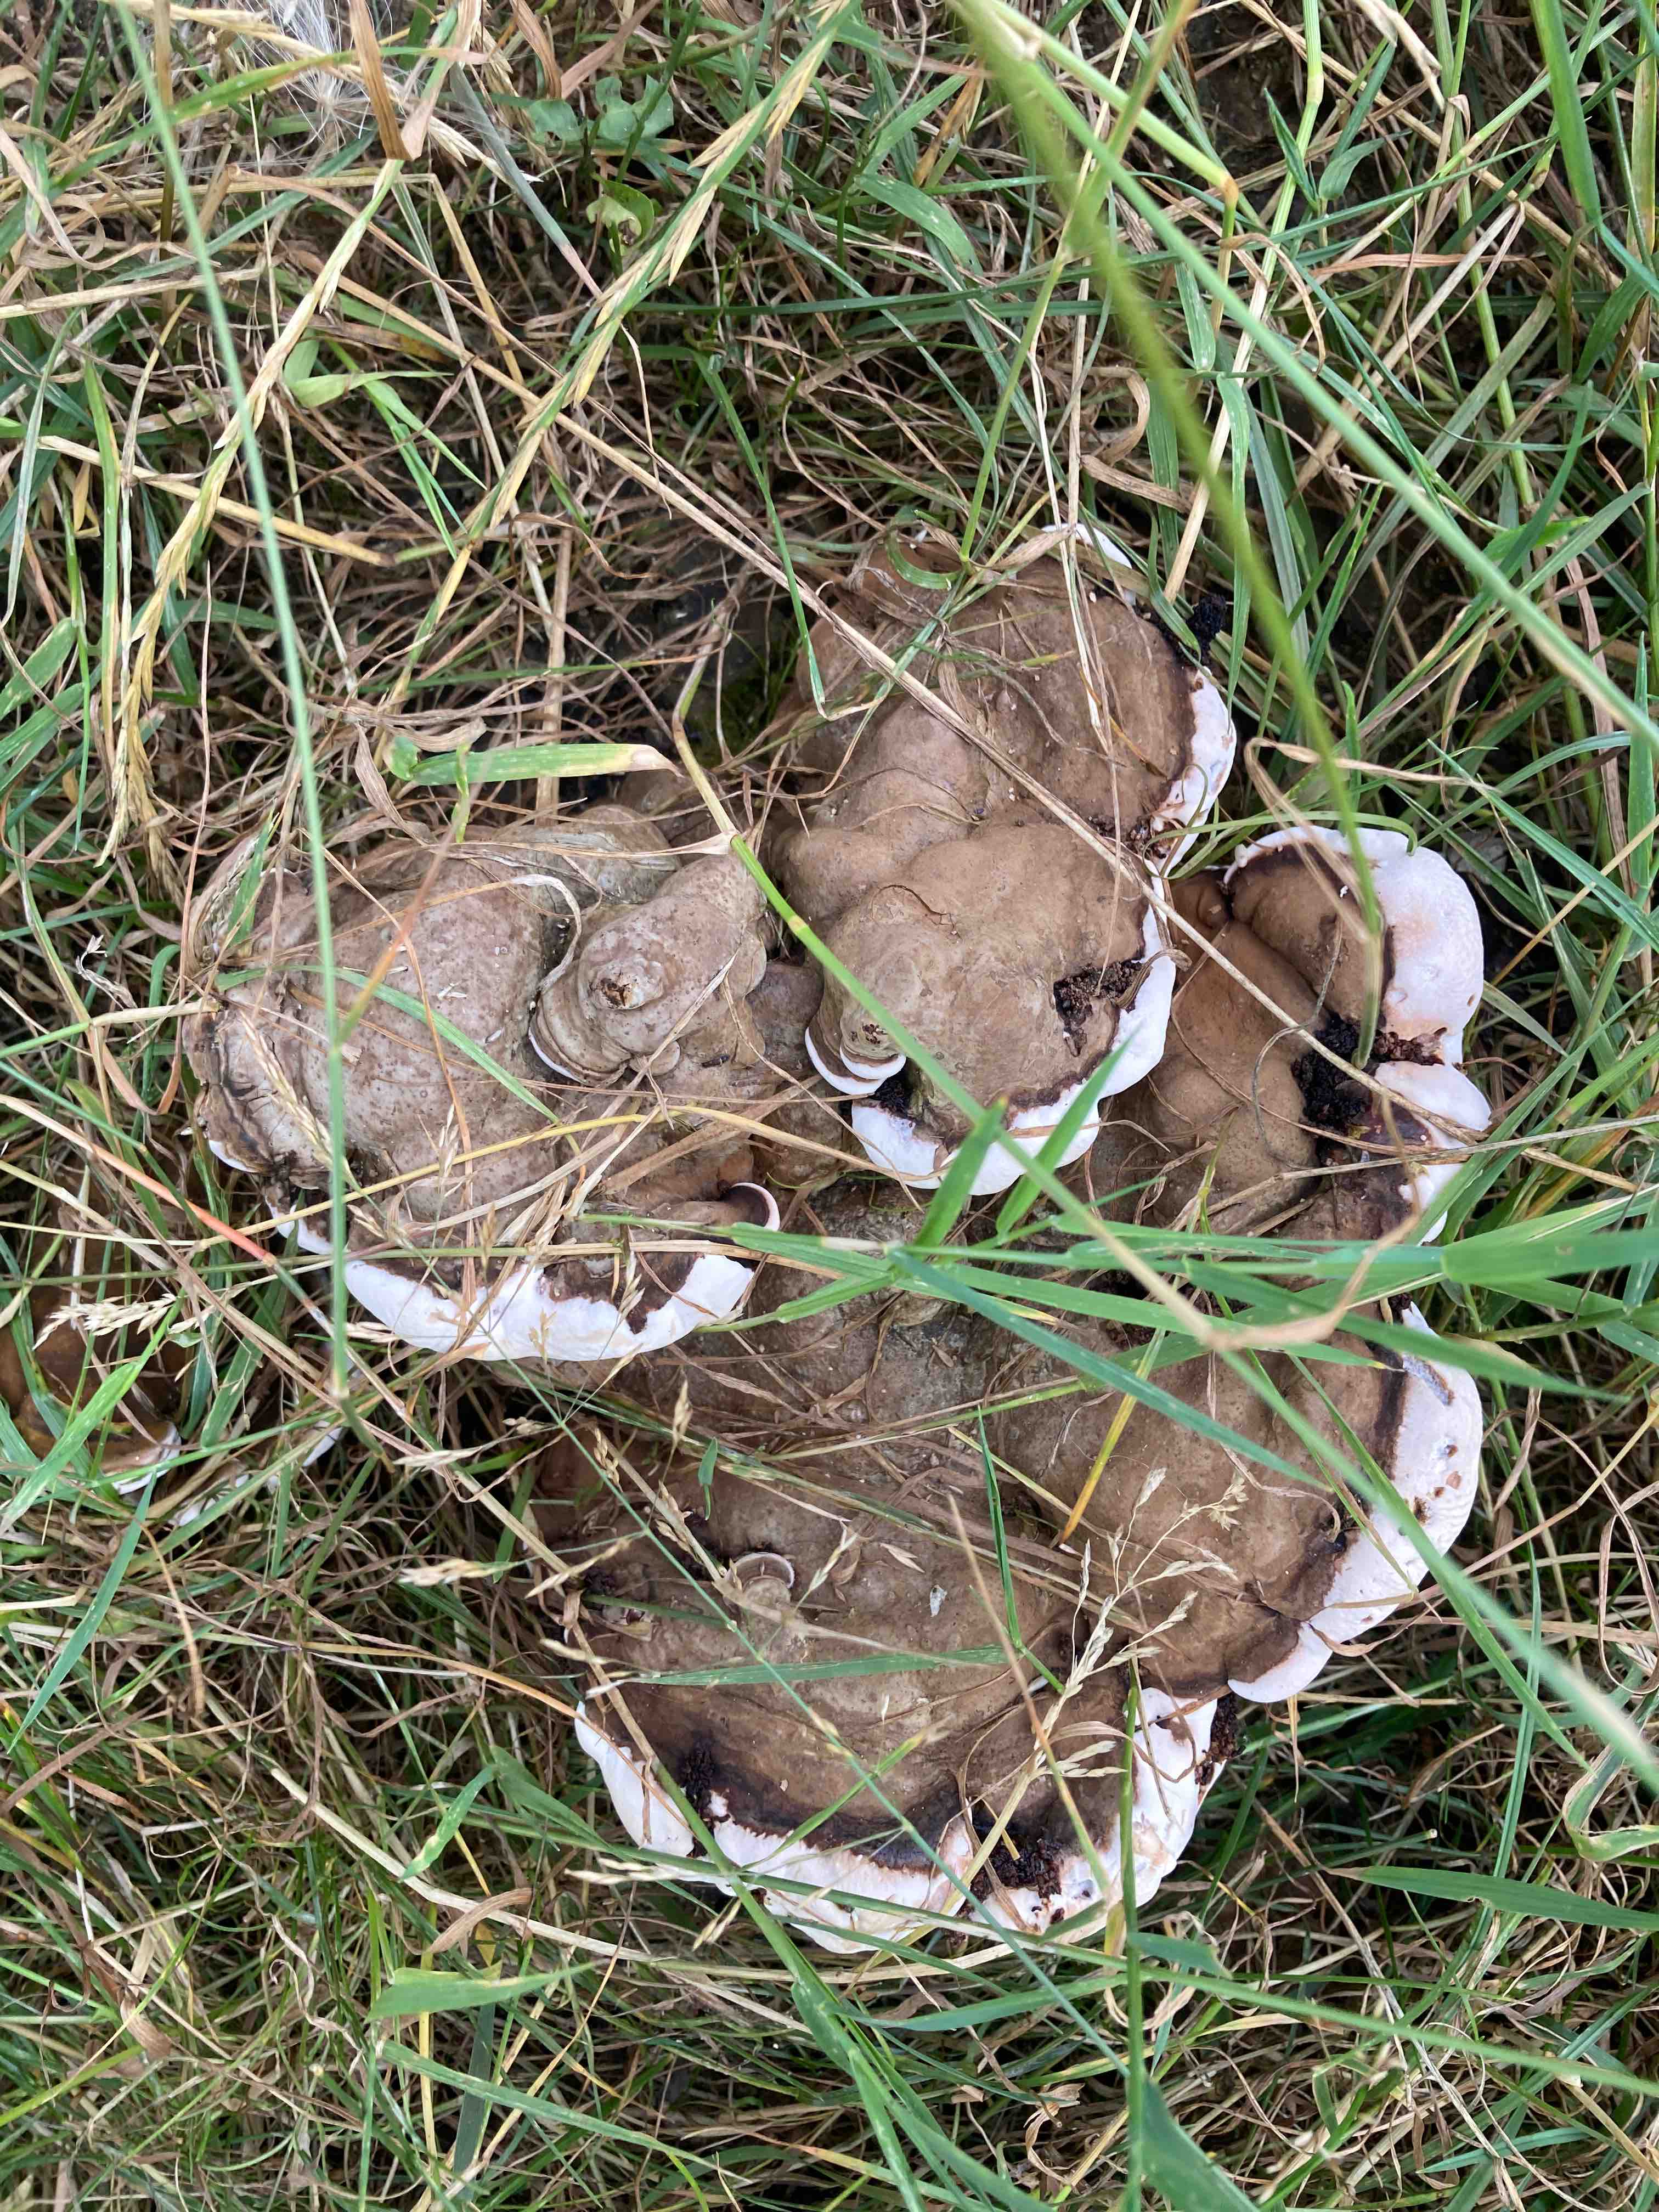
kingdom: Fungi
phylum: Basidiomycota
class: Agaricomycetes
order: Polyporales
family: Polyporaceae
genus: Ganoderma
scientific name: Ganoderma applanatum
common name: flad lakporesvamp
